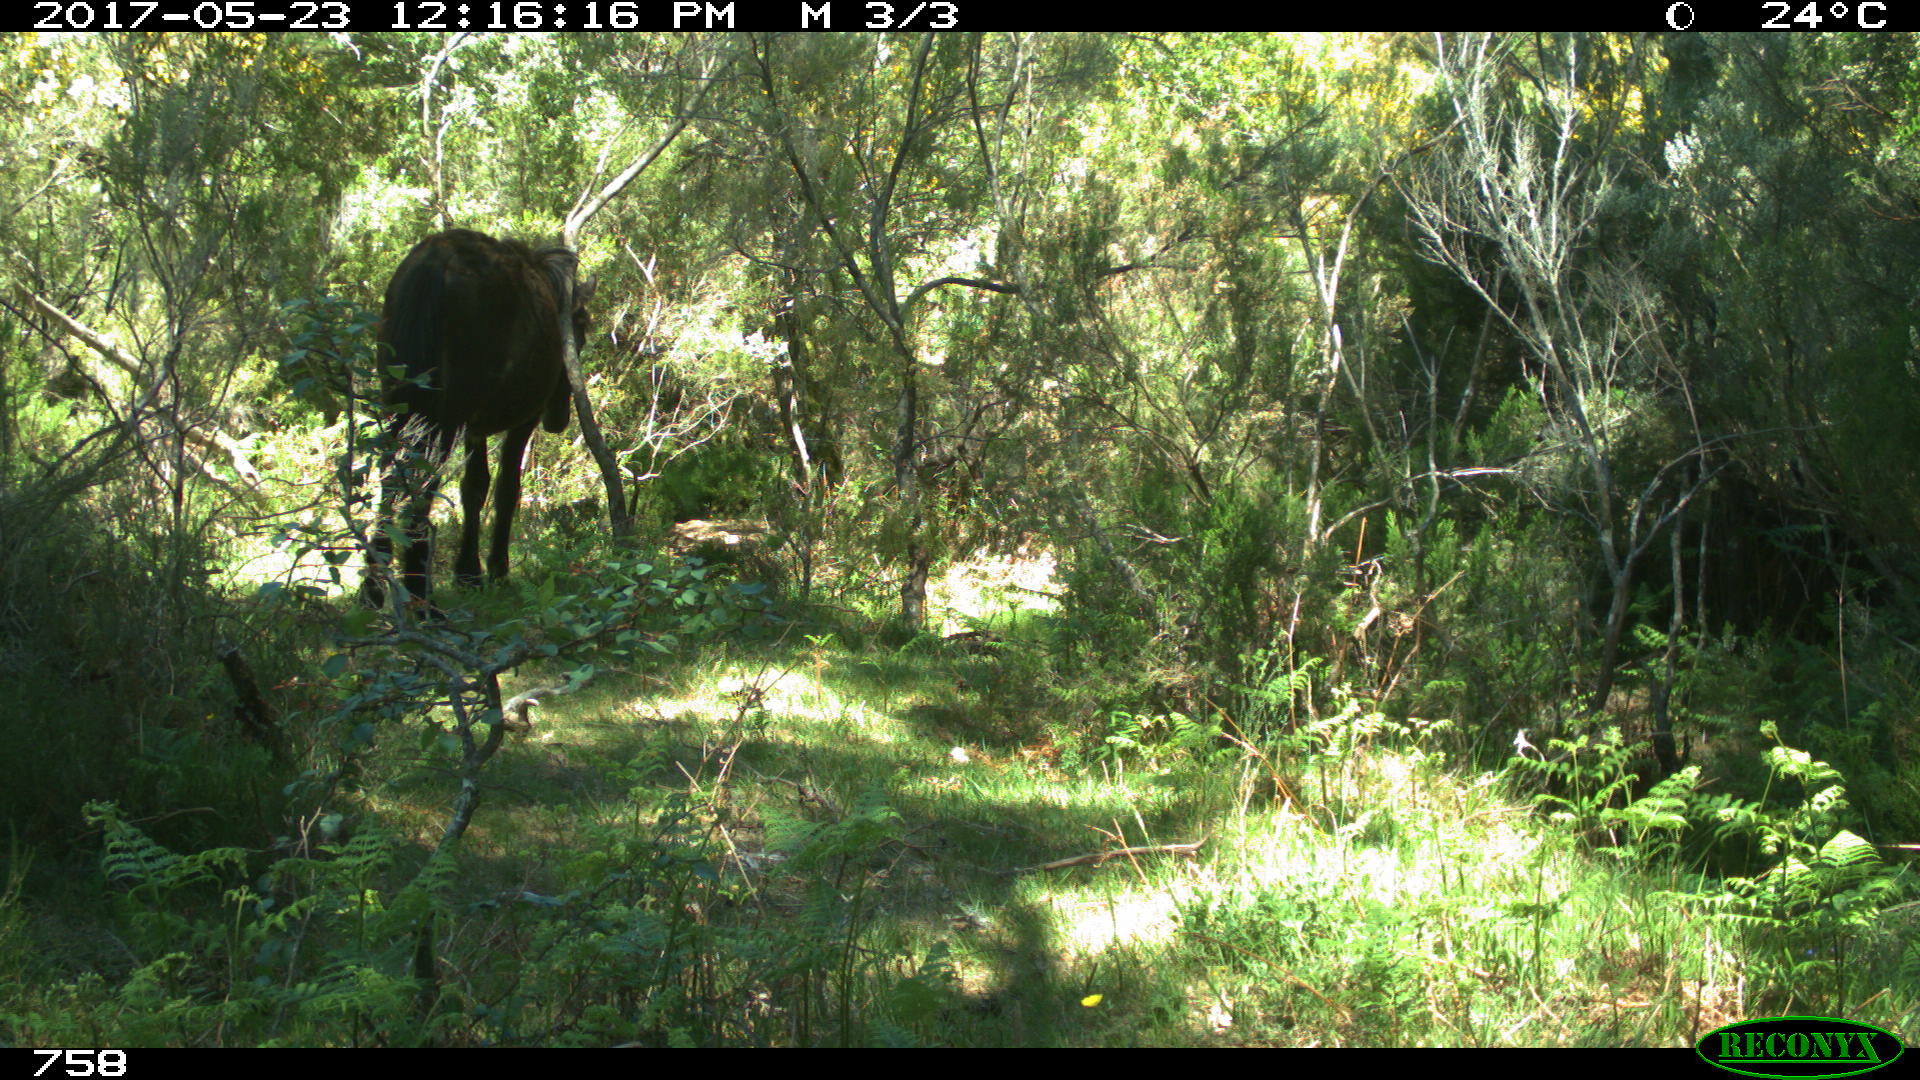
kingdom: Animalia
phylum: Chordata
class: Mammalia
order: Perissodactyla
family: Equidae
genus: Equus
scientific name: Equus caballus
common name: Horse
